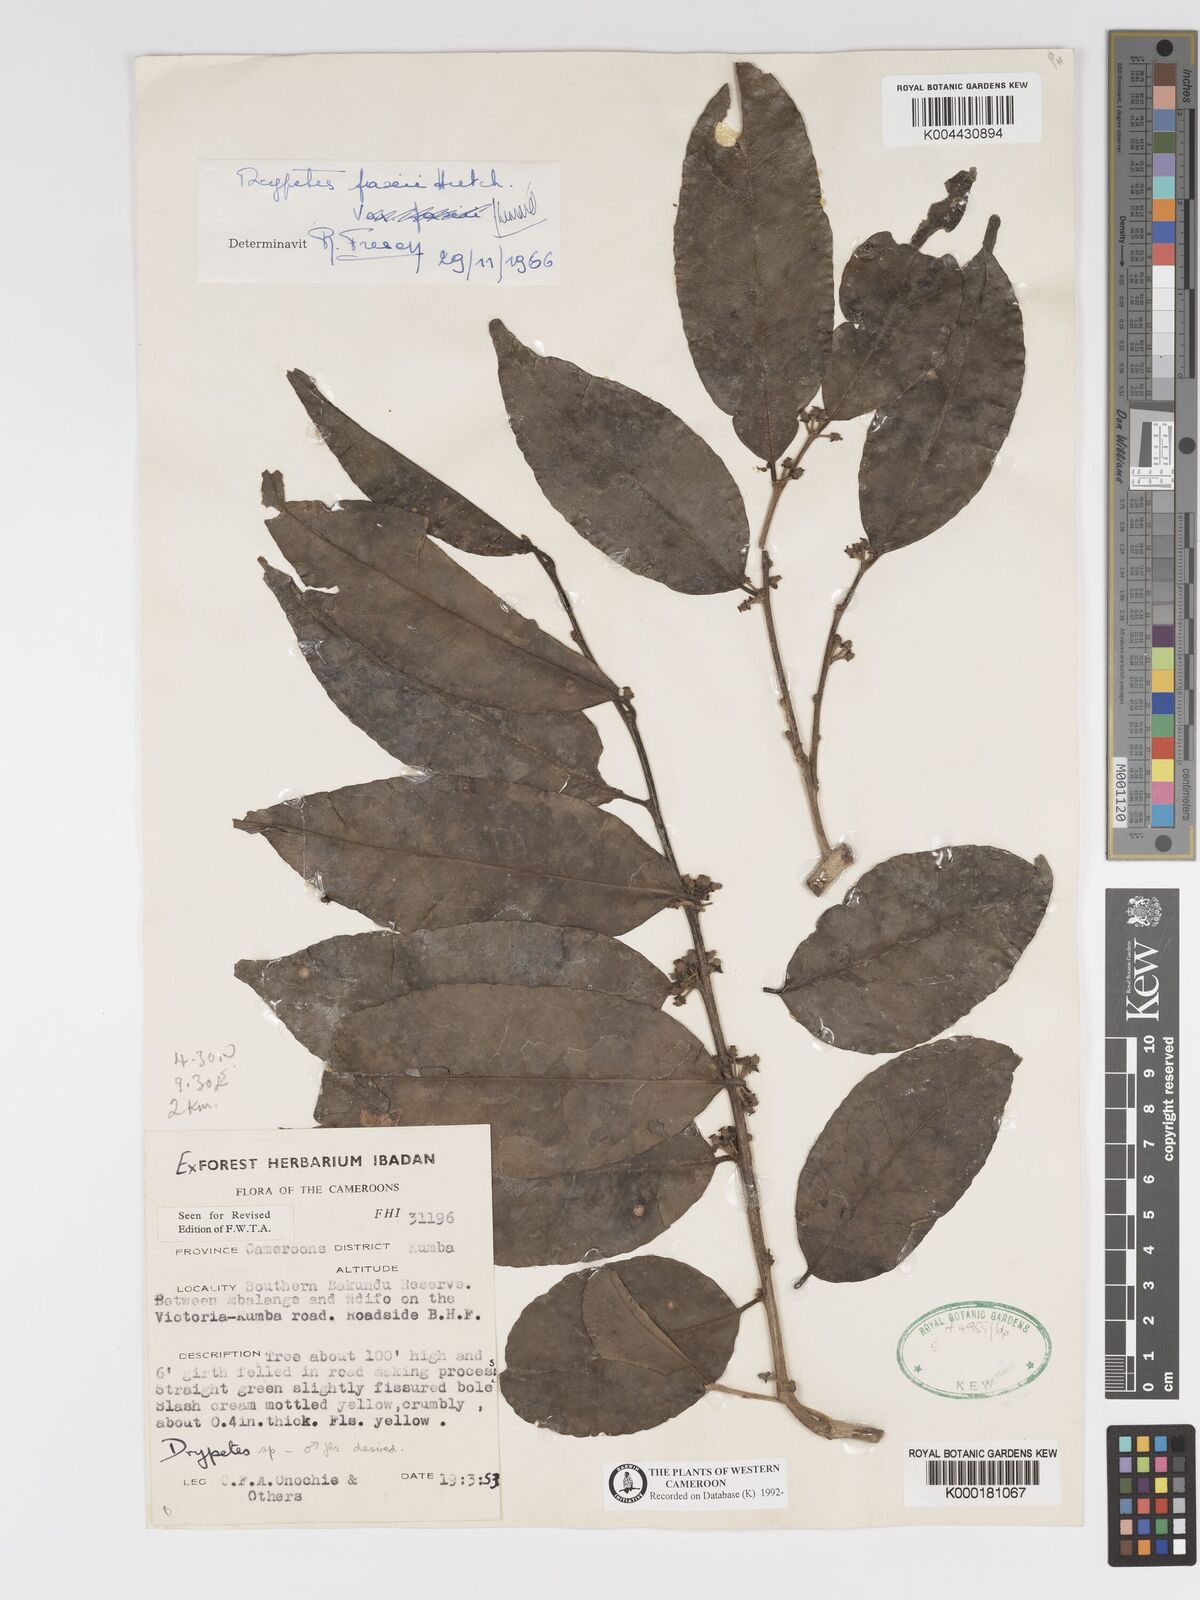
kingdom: Plantae
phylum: Tracheophyta
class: Magnoliopsida
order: Malpighiales
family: Putranjivaceae
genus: Drypetes
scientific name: Drypetes paxii
